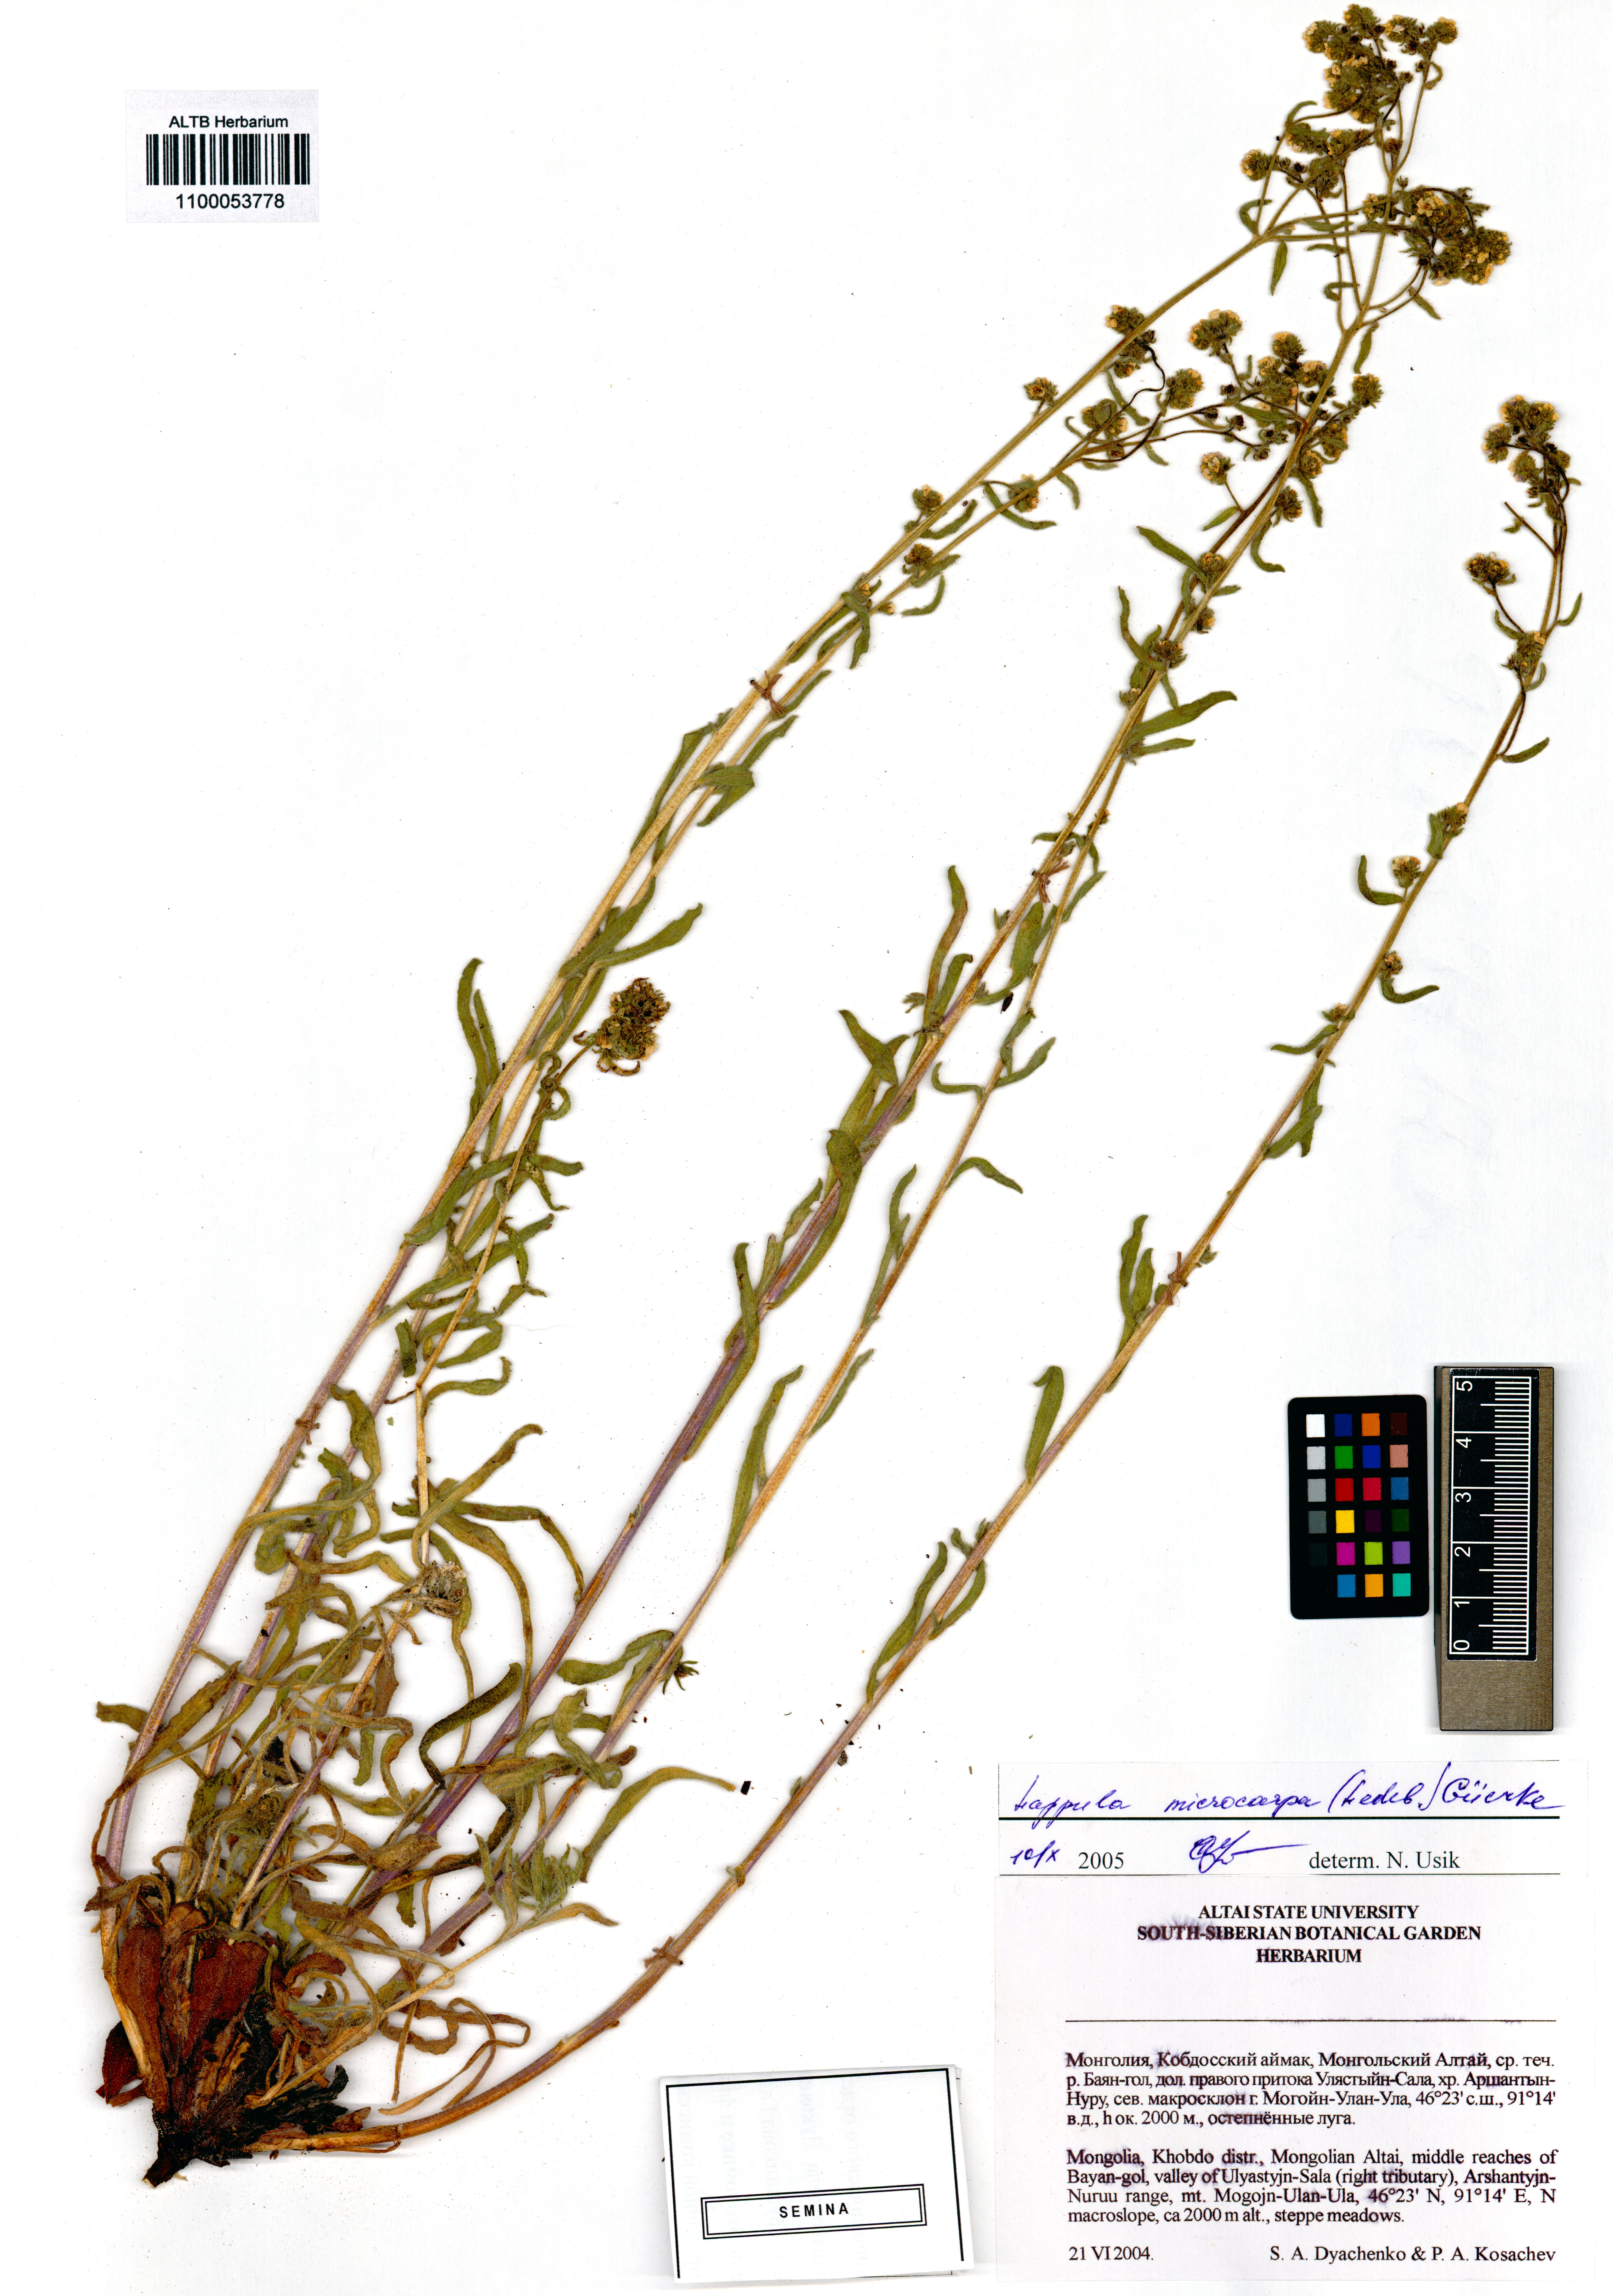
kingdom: Plantae
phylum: Tracheophyta
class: Magnoliopsida
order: Boraginales
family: Boraginaceae
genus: Lappula
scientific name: Lappula microcarpa
